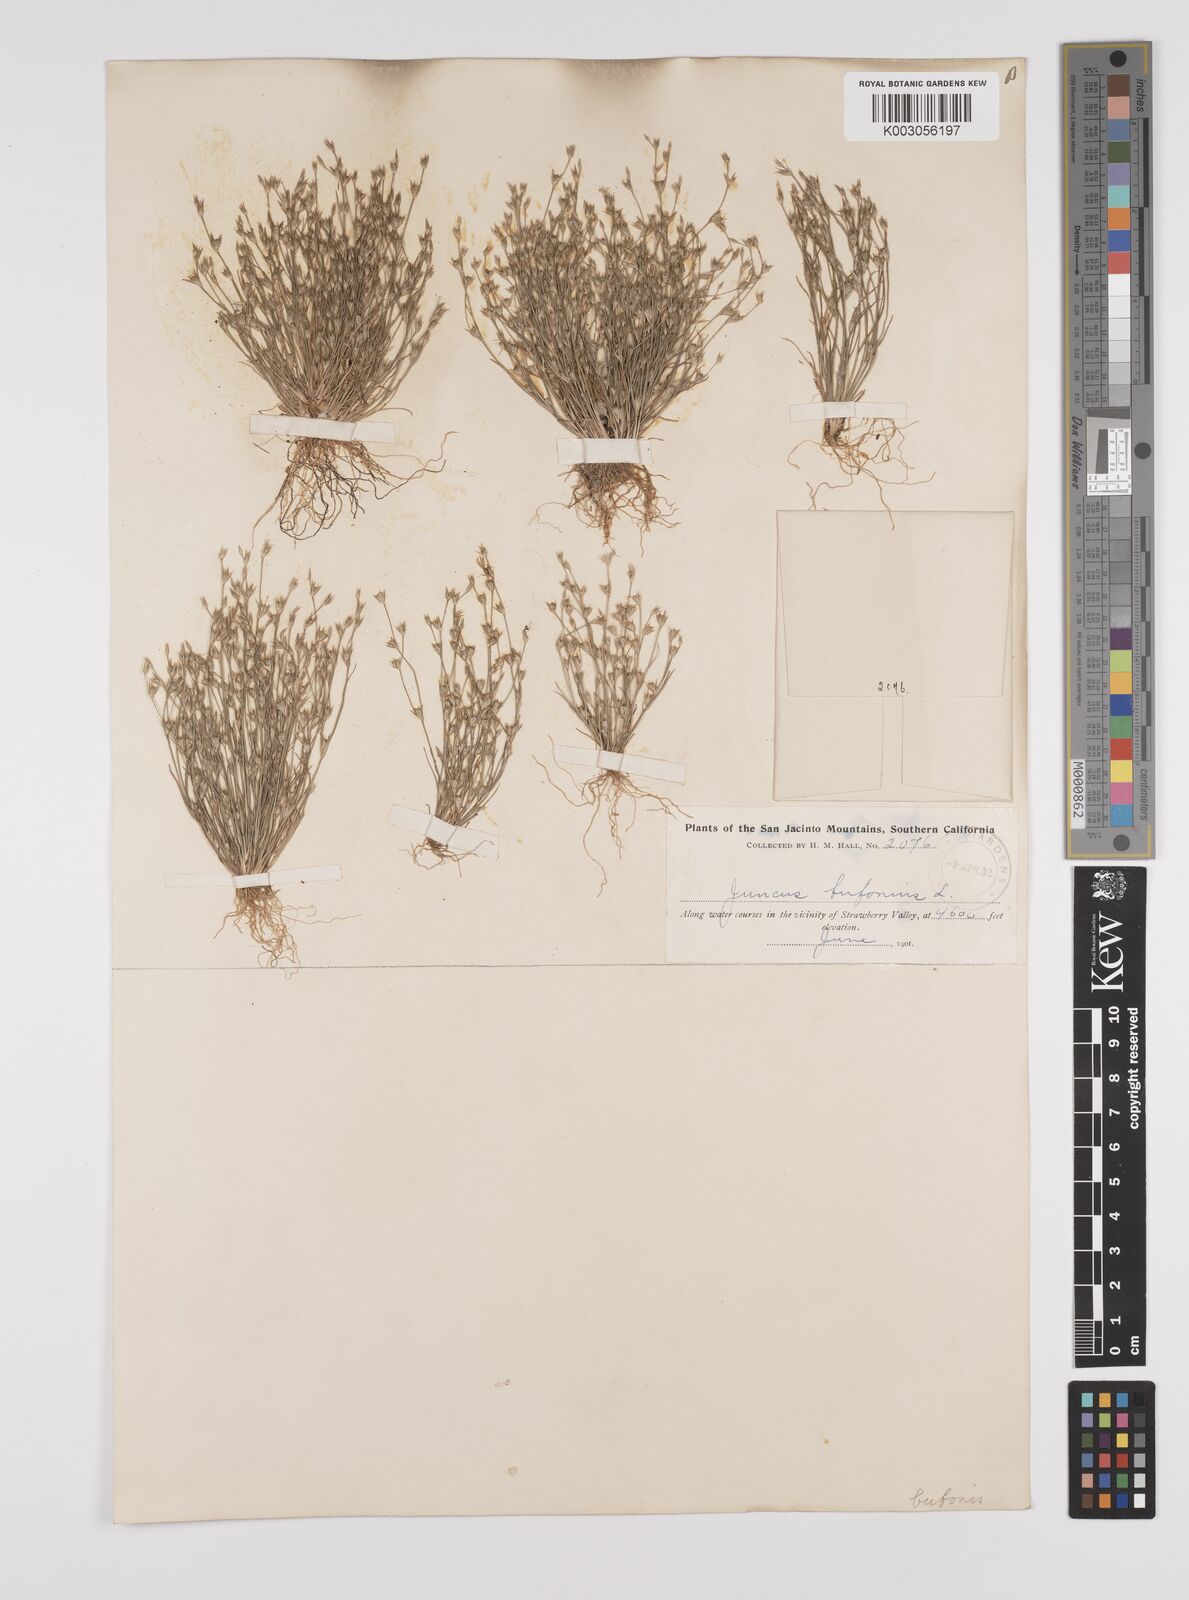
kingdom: Plantae
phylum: Tracheophyta
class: Liliopsida
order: Poales
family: Juncaceae
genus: Juncus
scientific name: Juncus bufonius
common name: Toad rush
